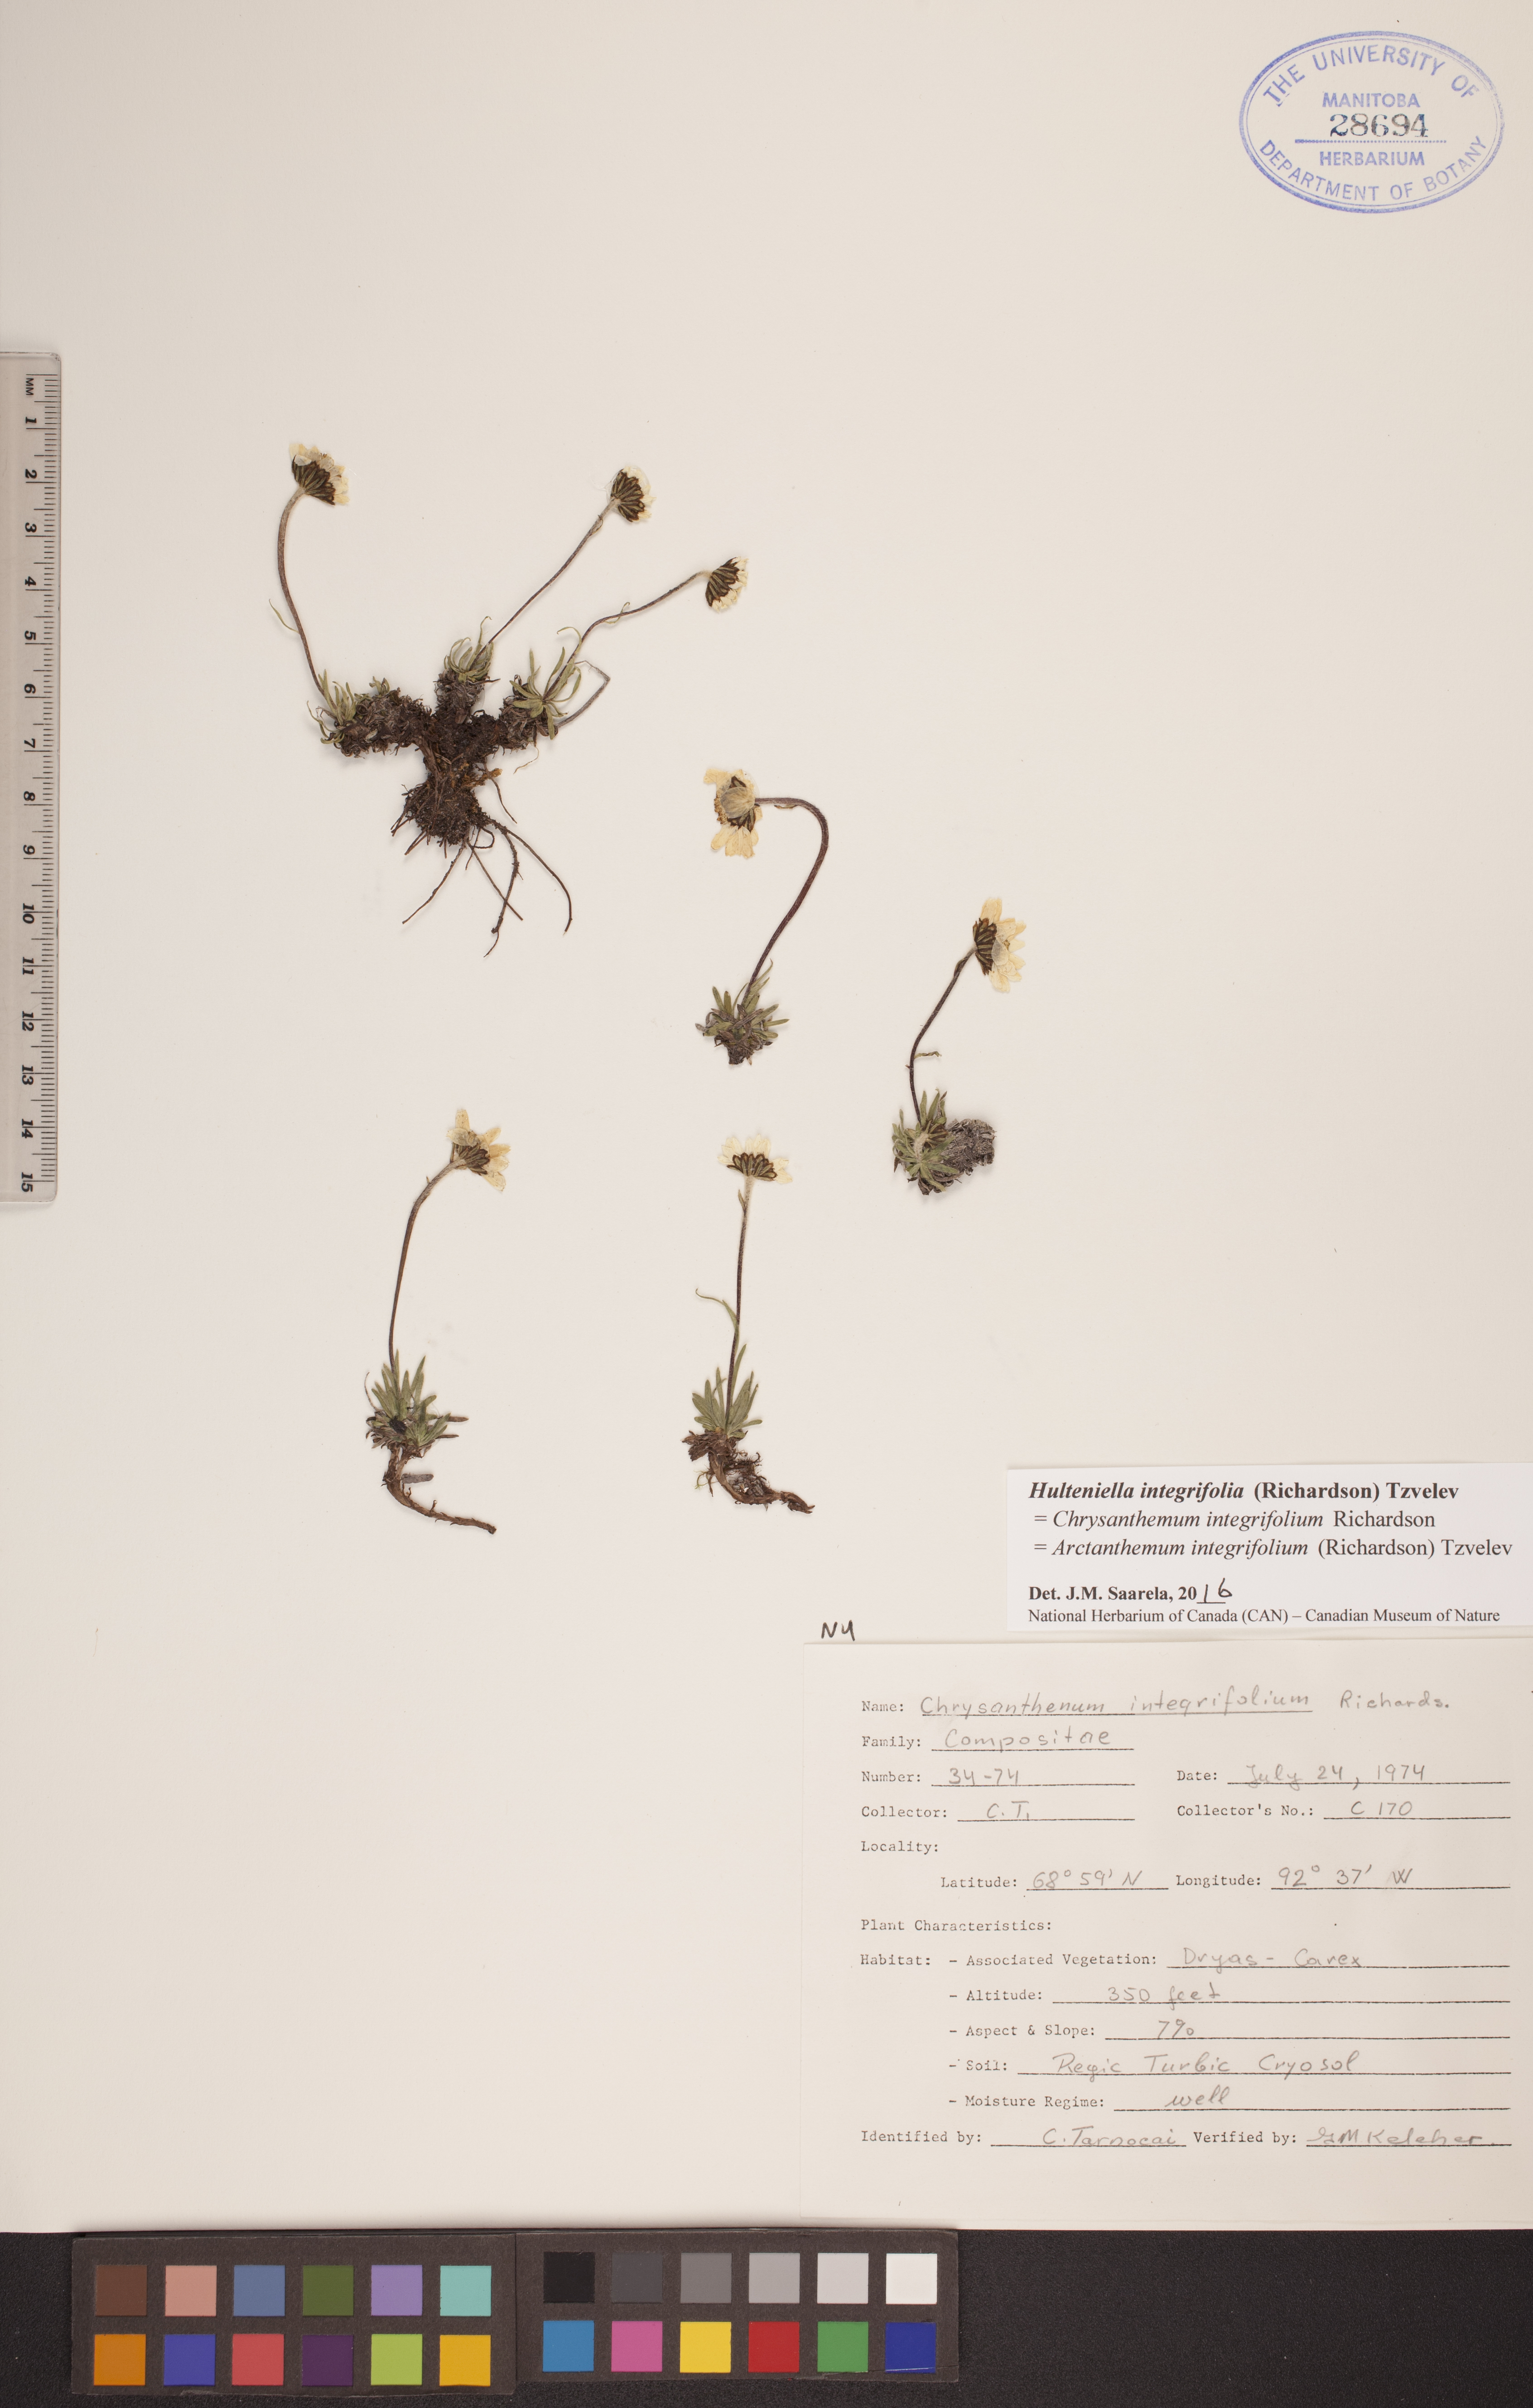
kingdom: Plantae
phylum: Tracheophyta
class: Magnoliopsida
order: Asterales
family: Asteraceae
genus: Arctanthemum
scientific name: Arctanthemum integrifolium
